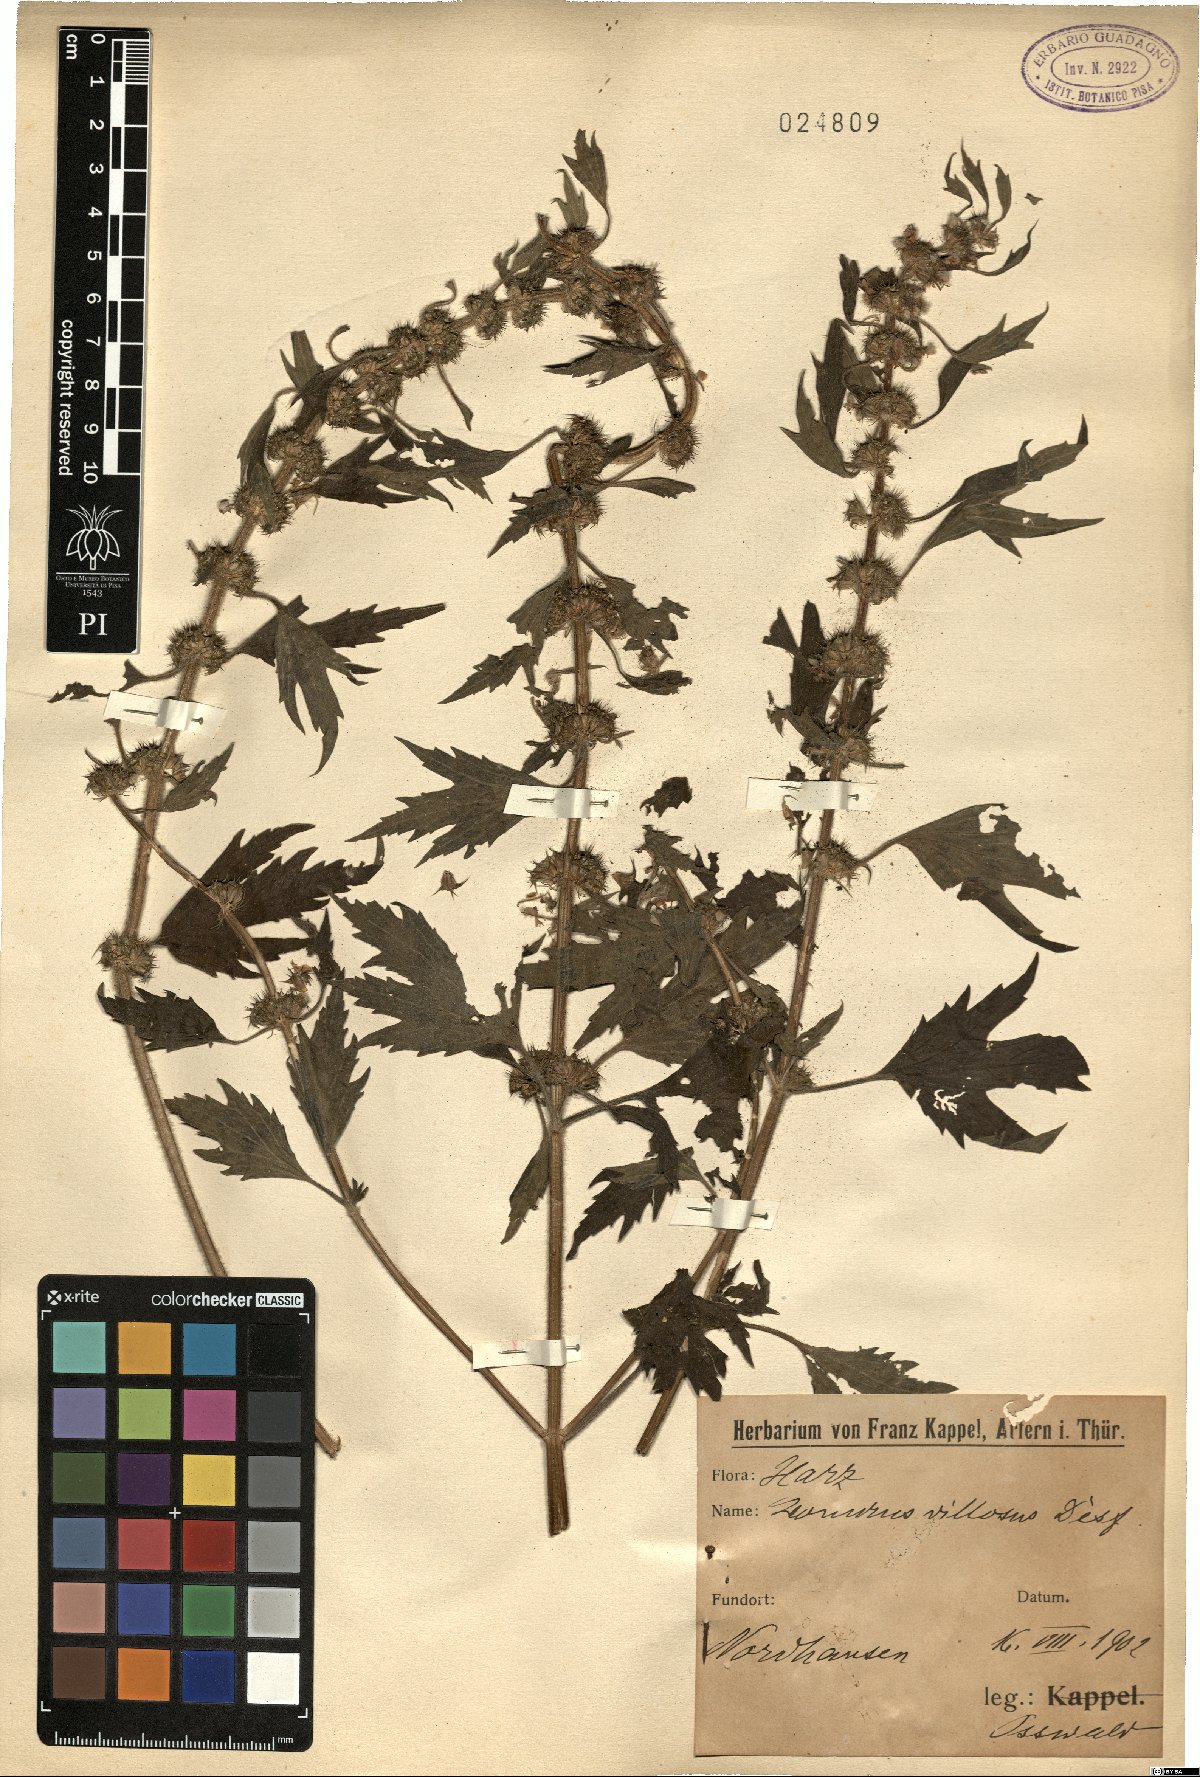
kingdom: Plantae
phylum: Tracheophyta
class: Magnoliopsida
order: Lamiales
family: Lamiaceae
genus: Leonurus
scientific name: Leonurus quinquelobatus
